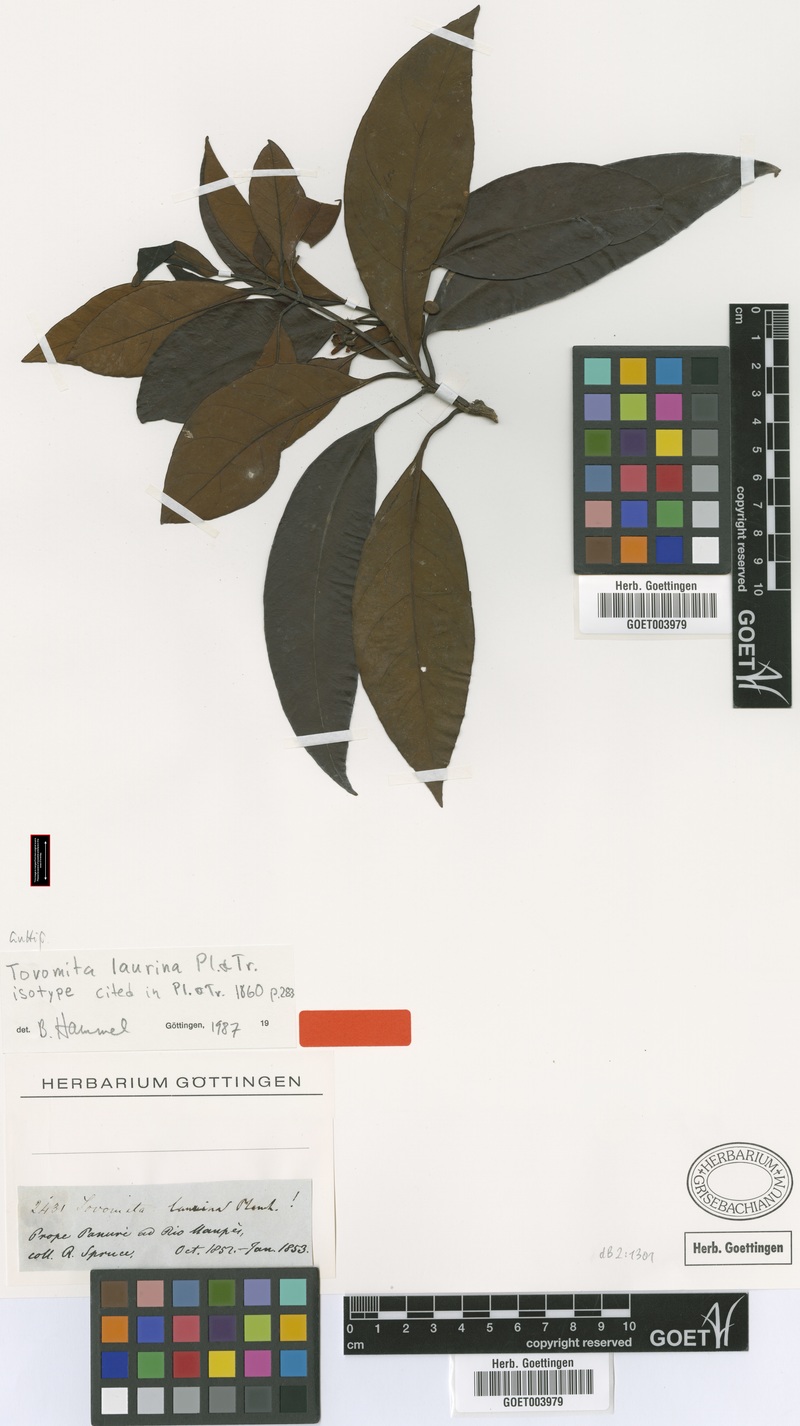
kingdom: Plantae
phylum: Tracheophyta
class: Magnoliopsida
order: Malpighiales
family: Clusiaceae
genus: Tovomita
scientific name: Tovomita laurina
